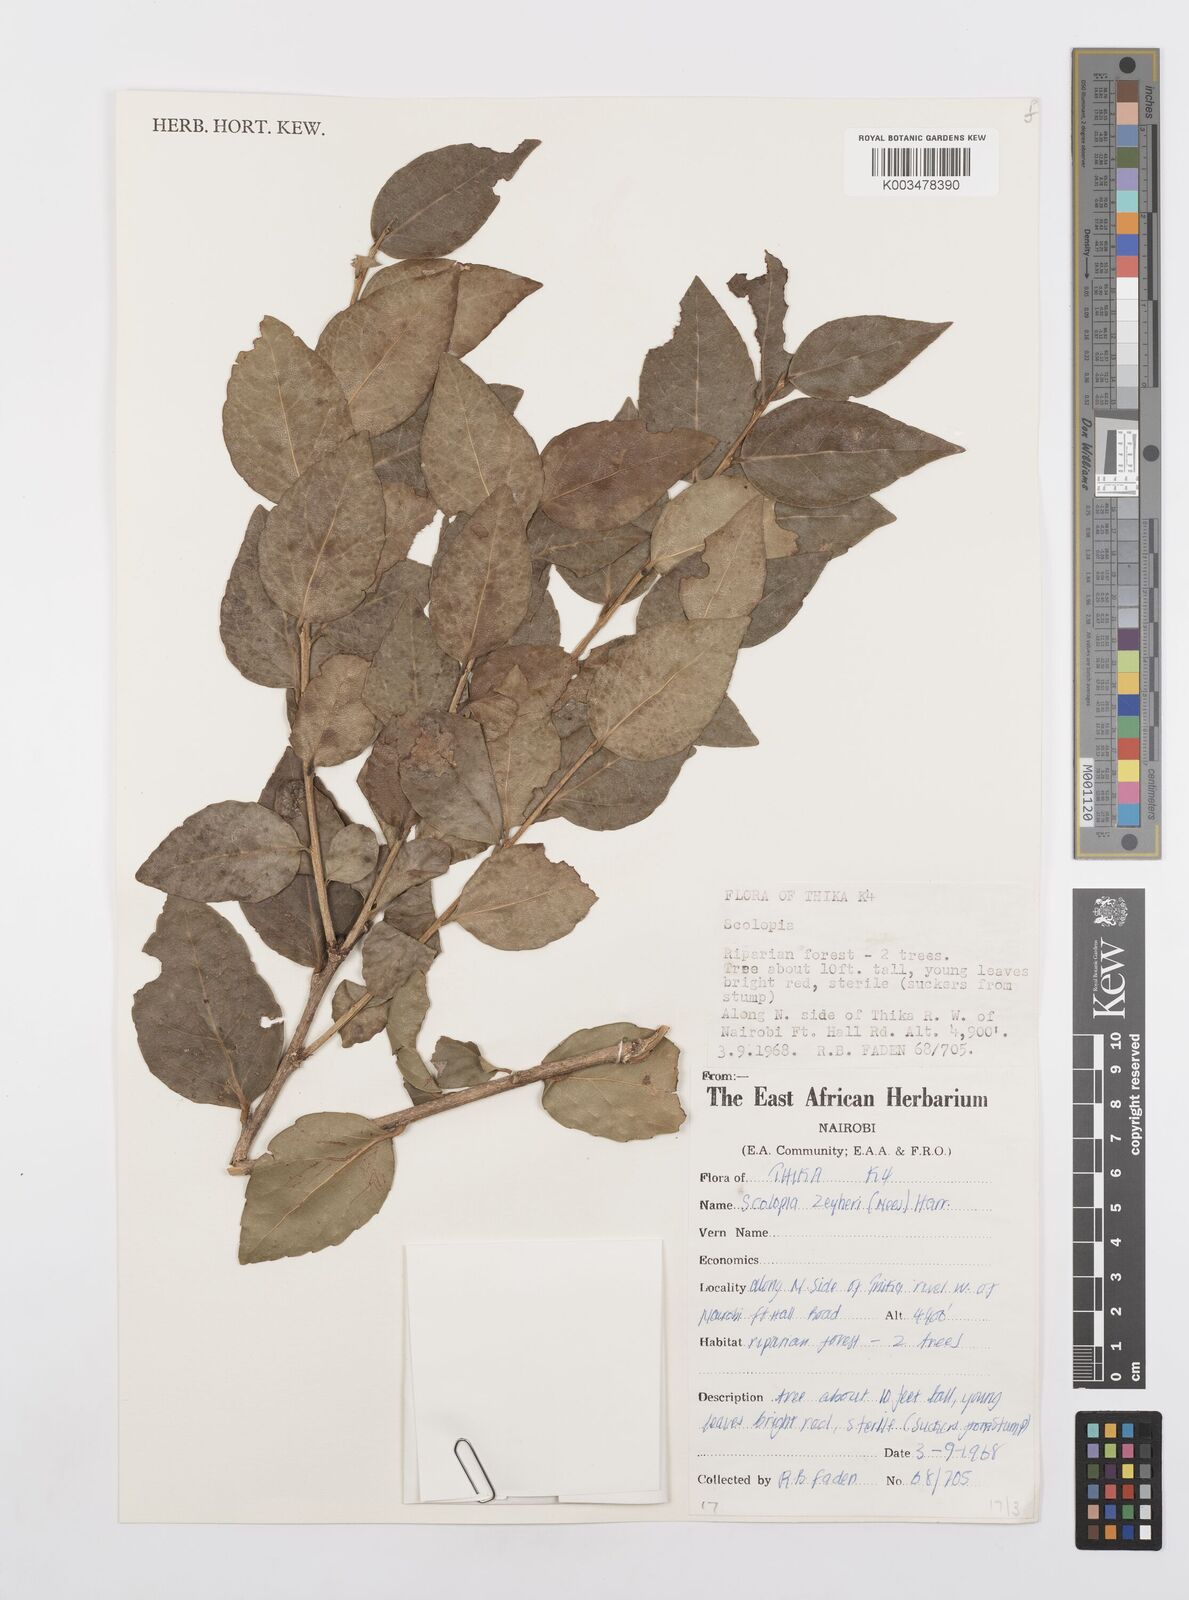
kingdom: Plantae
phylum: Tracheophyta
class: Magnoliopsida
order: Malpighiales
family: Salicaceae
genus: Scolopia
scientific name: Scolopia zeyheri
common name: Thorn pear
